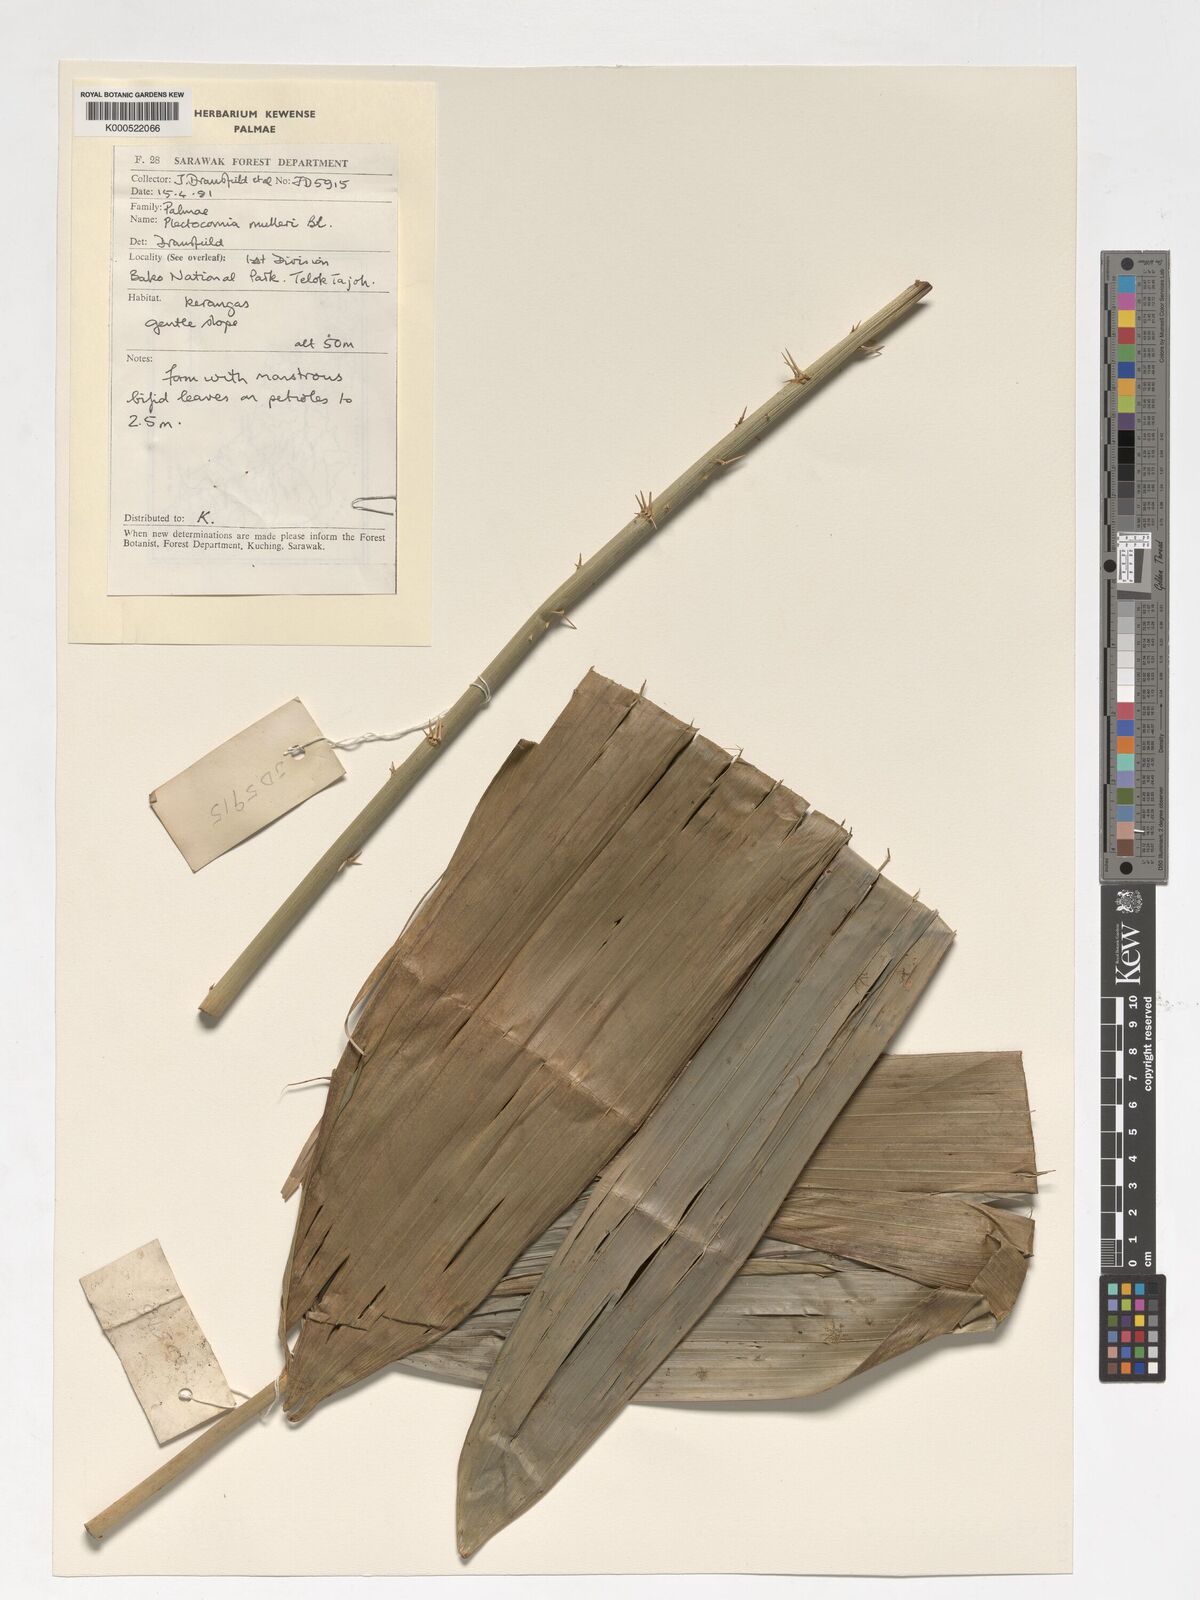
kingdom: Plantae
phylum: Tracheophyta
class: Liliopsida
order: Arecales
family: Arecaceae
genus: Plectocomia
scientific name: Plectocomia mulleri
